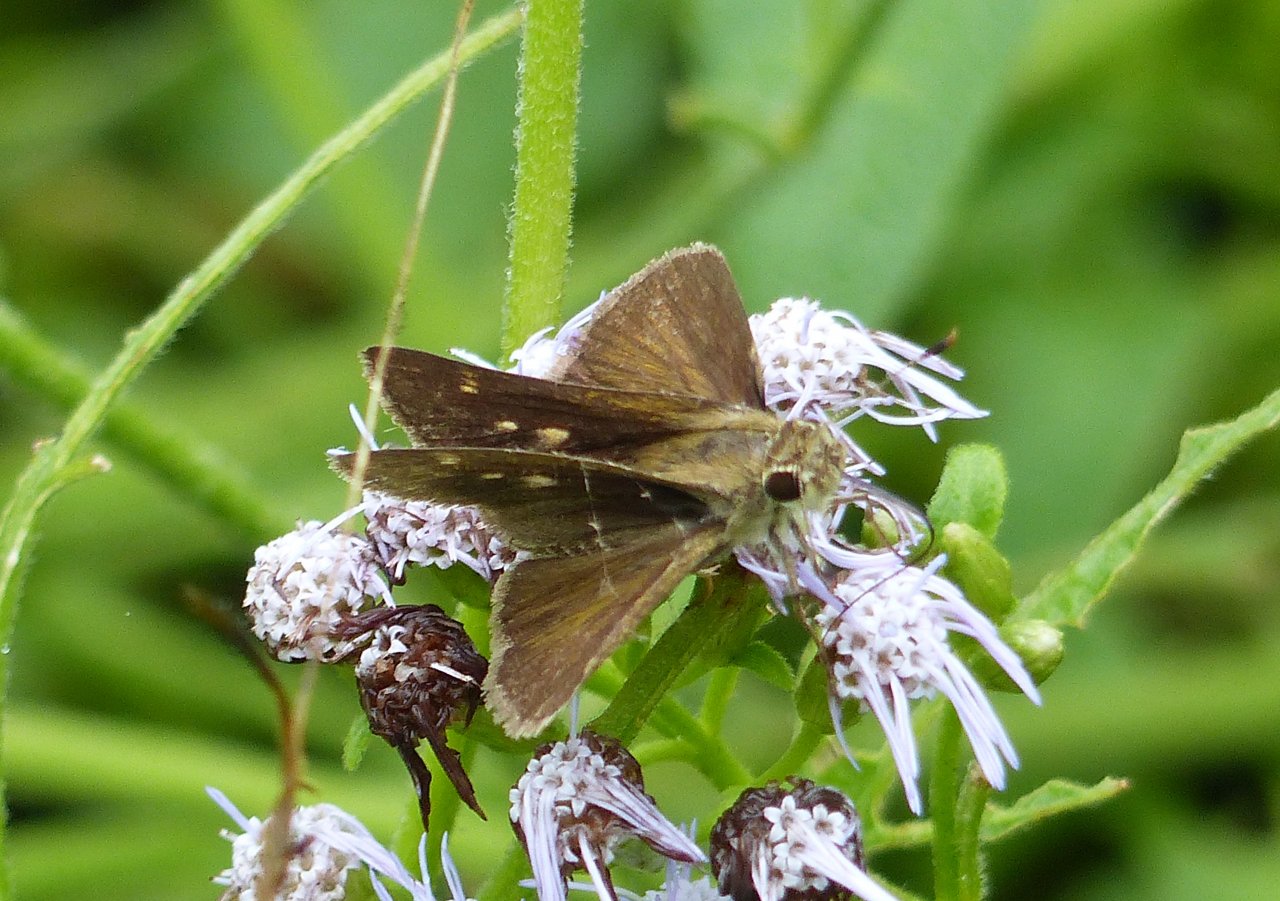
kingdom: Animalia
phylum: Arthropoda
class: Insecta
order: Lepidoptera
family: Hesperiidae
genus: Wallengrenia
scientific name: Wallengrenia otho
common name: Southern Broken-Dash
